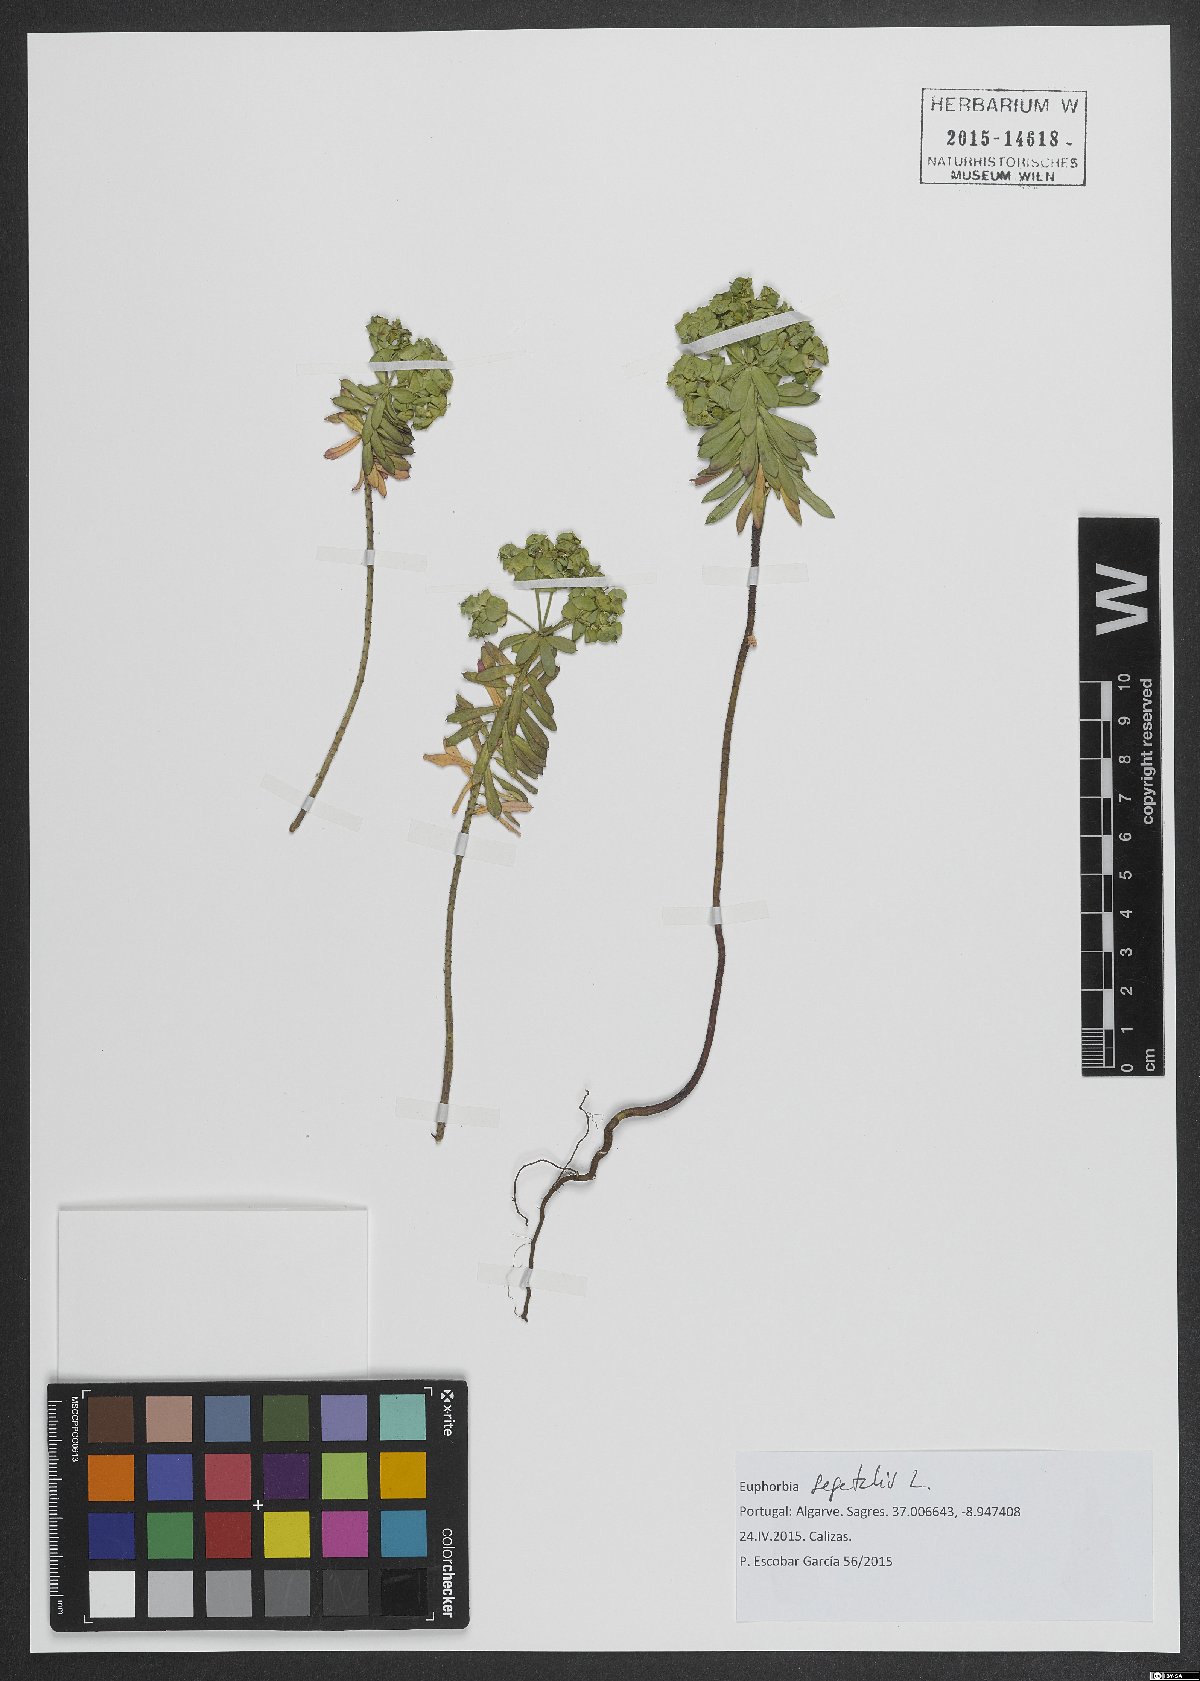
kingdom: Plantae
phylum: Tracheophyta
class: Magnoliopsida
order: Malpighiales
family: Euphorbiaceae
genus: Euphorbia
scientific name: Euphorbia segetalis
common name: Corn spurge
